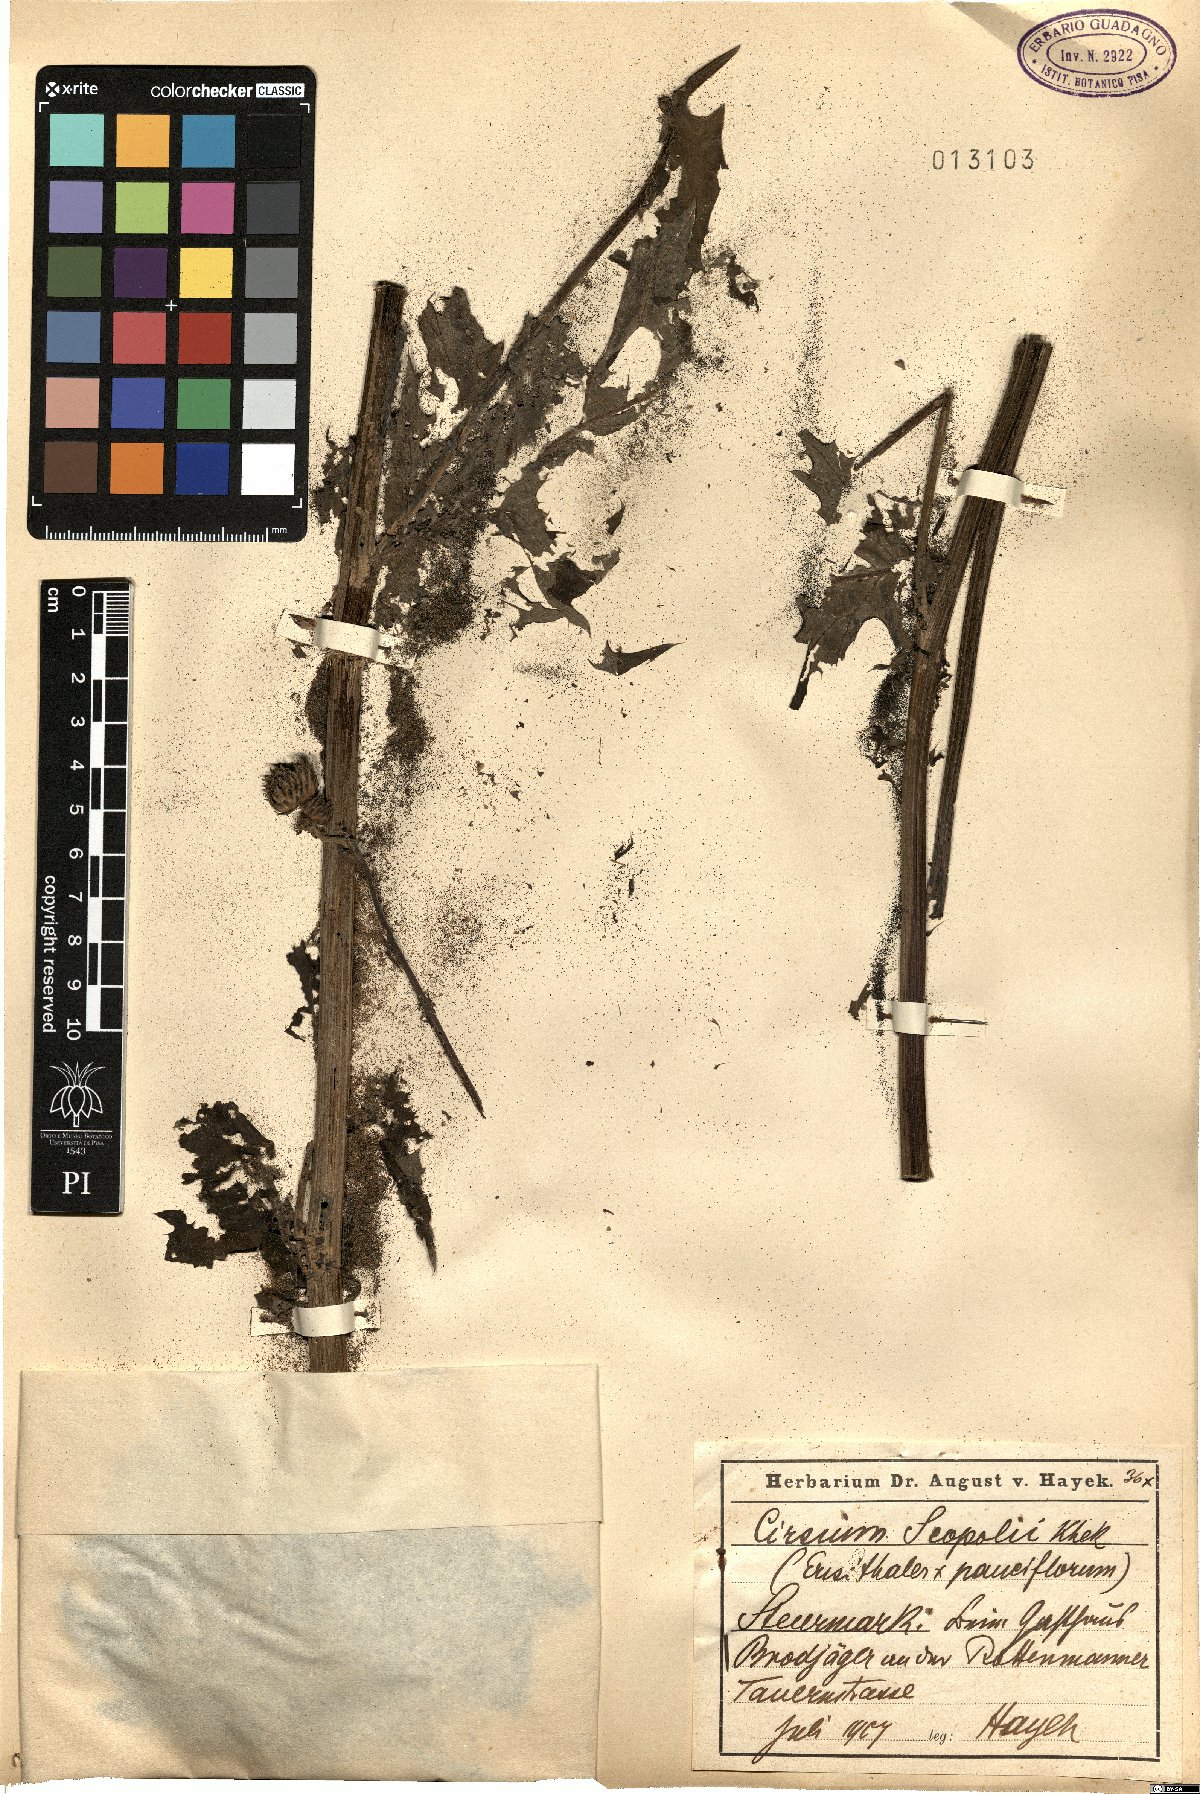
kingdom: Plantae
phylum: Tracheophyta
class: Magnoliopsida
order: Asterales
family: Asteraceae
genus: Cirsium
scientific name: Cirsium scopolii
